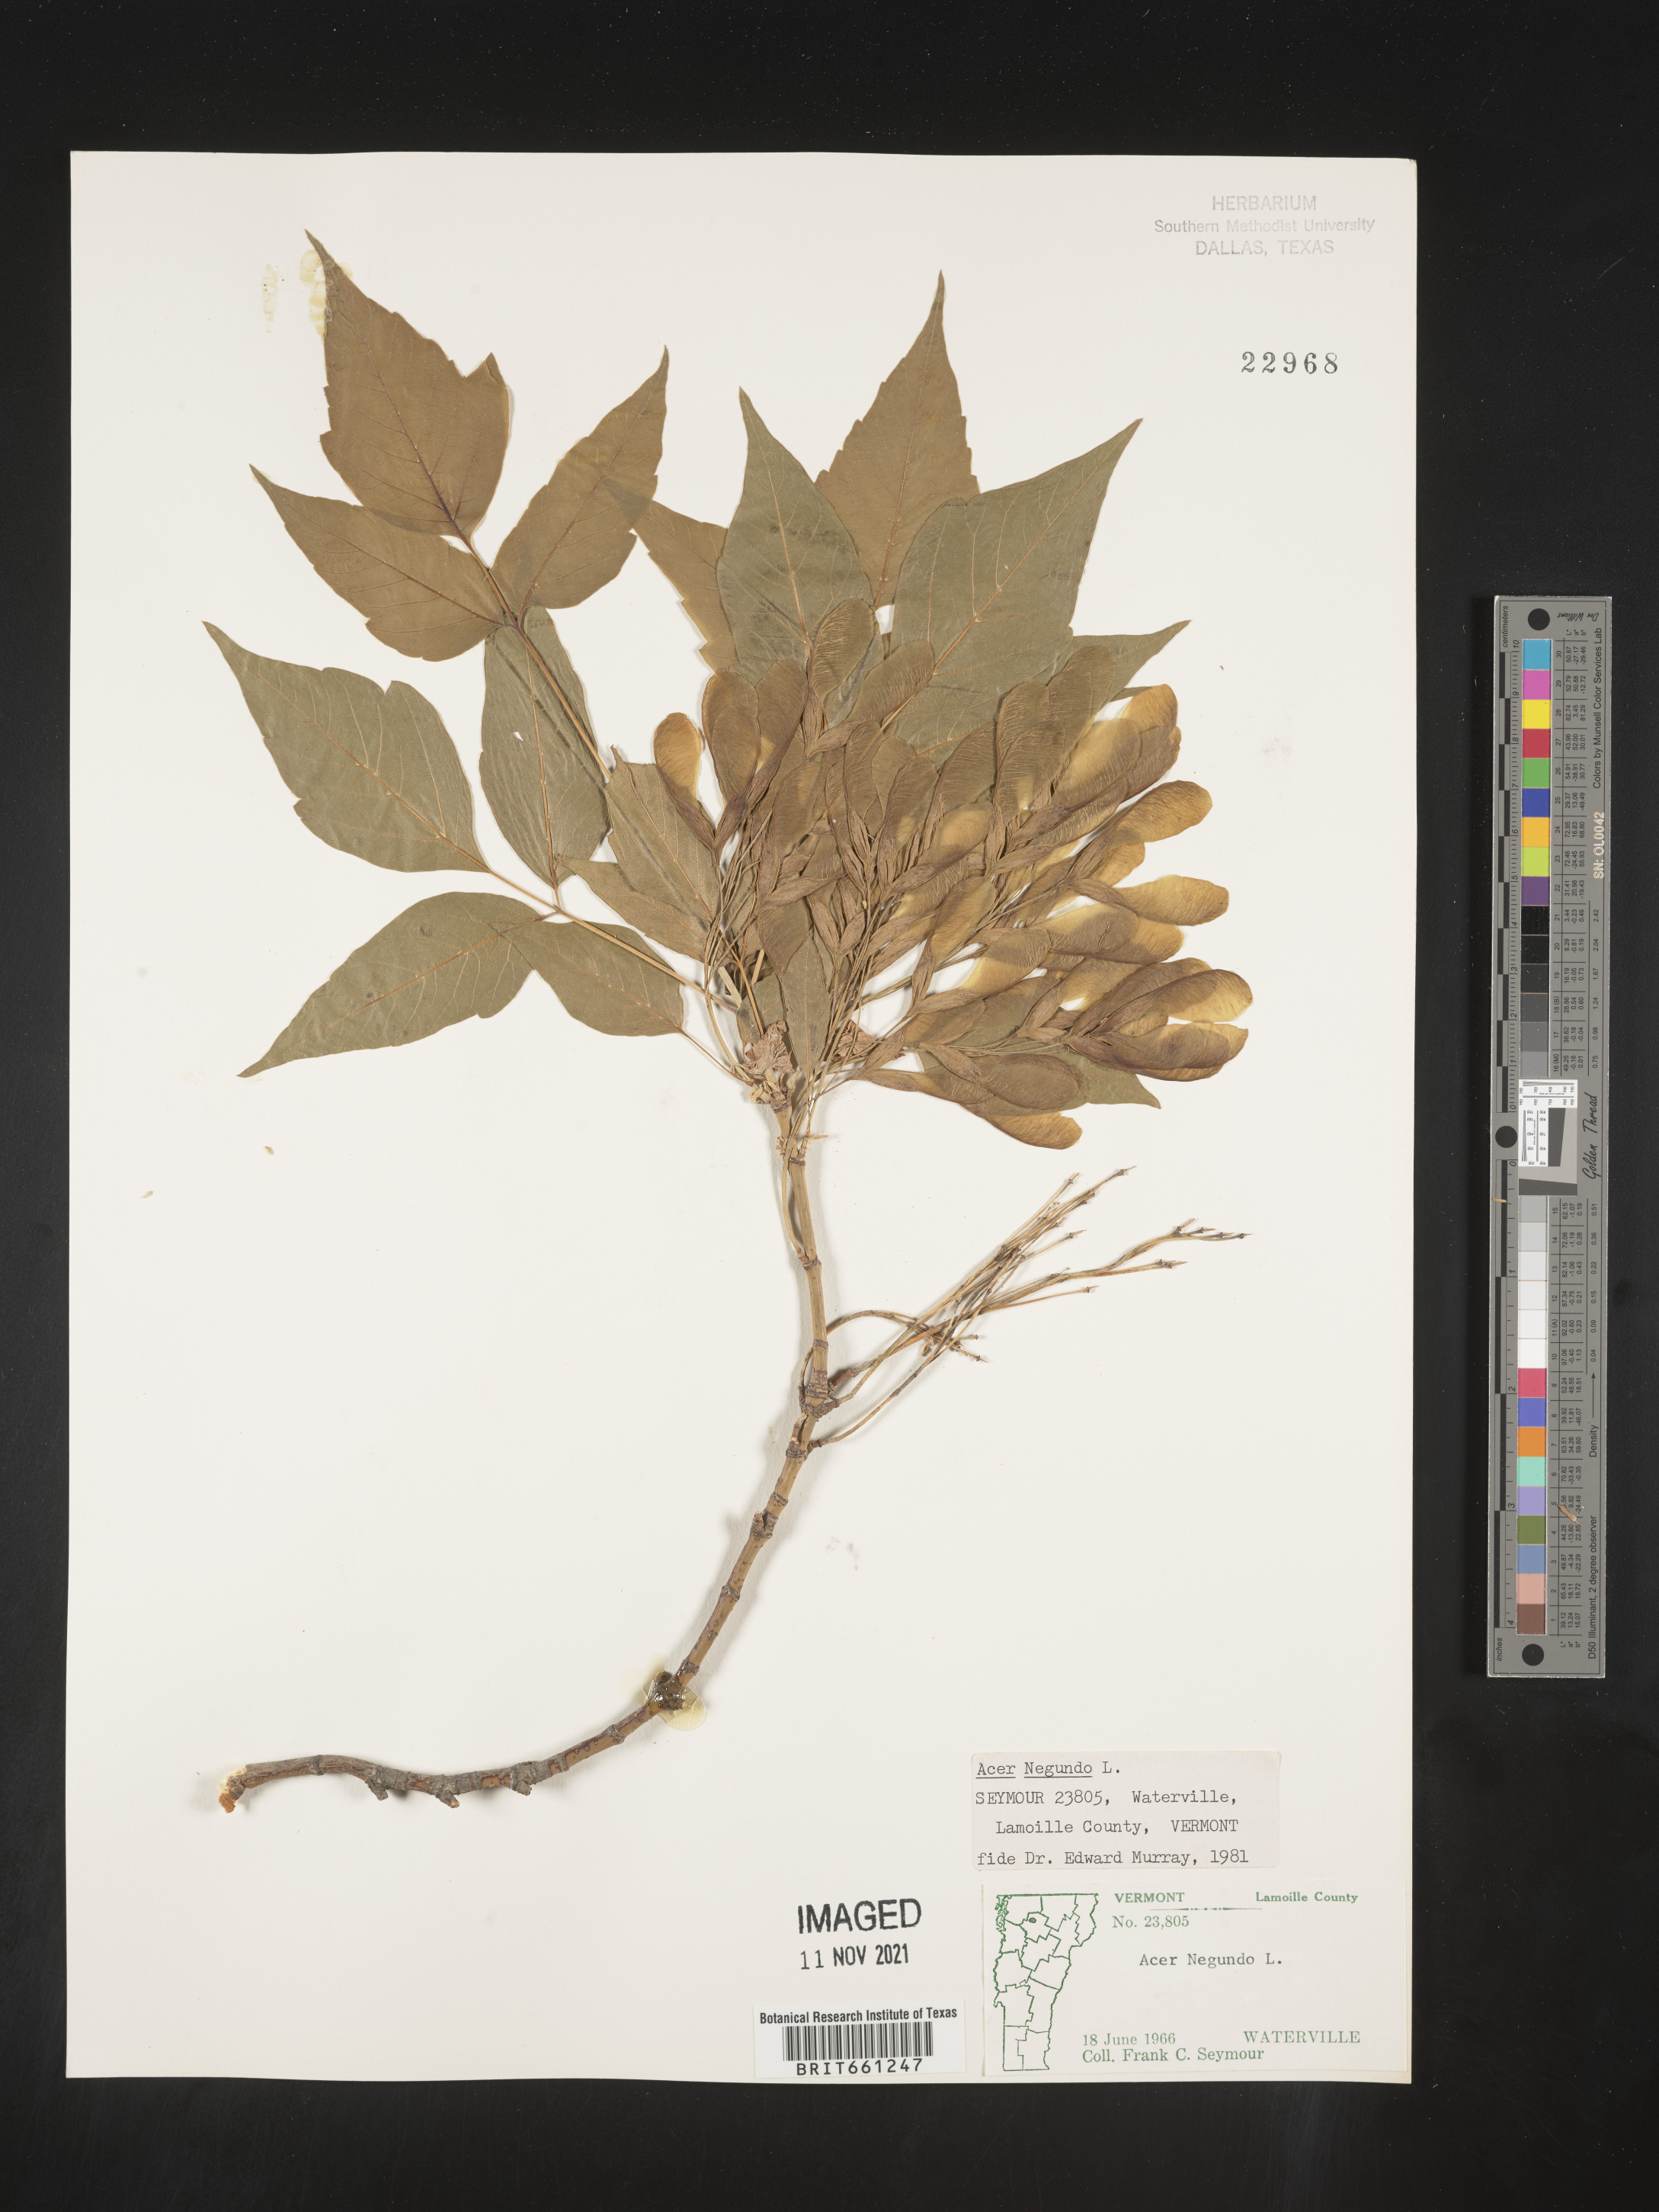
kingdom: Plantae
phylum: Tracheophyta
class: Magnoliopsida
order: Sapindales
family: Sapindaceae
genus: Acer
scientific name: Acer negundo
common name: Ashleaf maple
